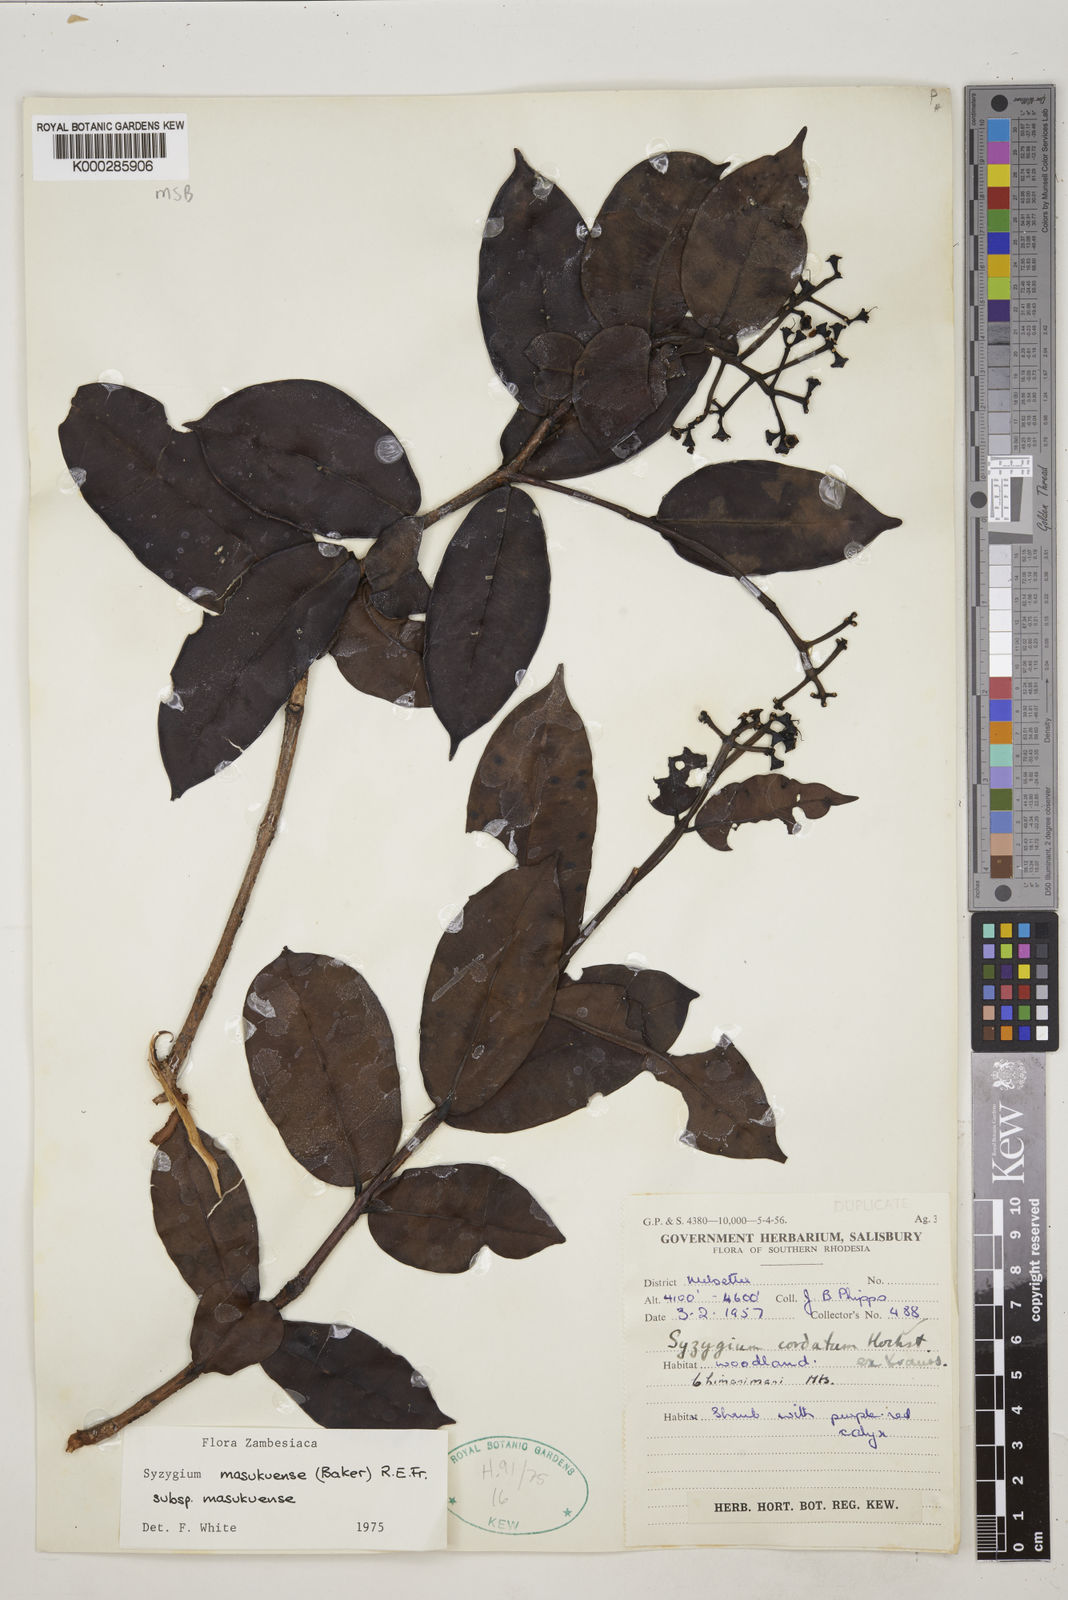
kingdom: Plantae
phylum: Tracheophyta
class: Magnoliopsida
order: Myrtales
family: Myrtaceae
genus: Syzygium
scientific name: Syzygium masukuense
